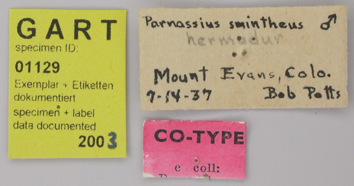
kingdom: Animalia
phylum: Arthropoda
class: Insecta
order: Lepidoptera
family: Papilionidae
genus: Parnassius
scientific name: Parnassius smintheus
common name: Mountain parnassian
